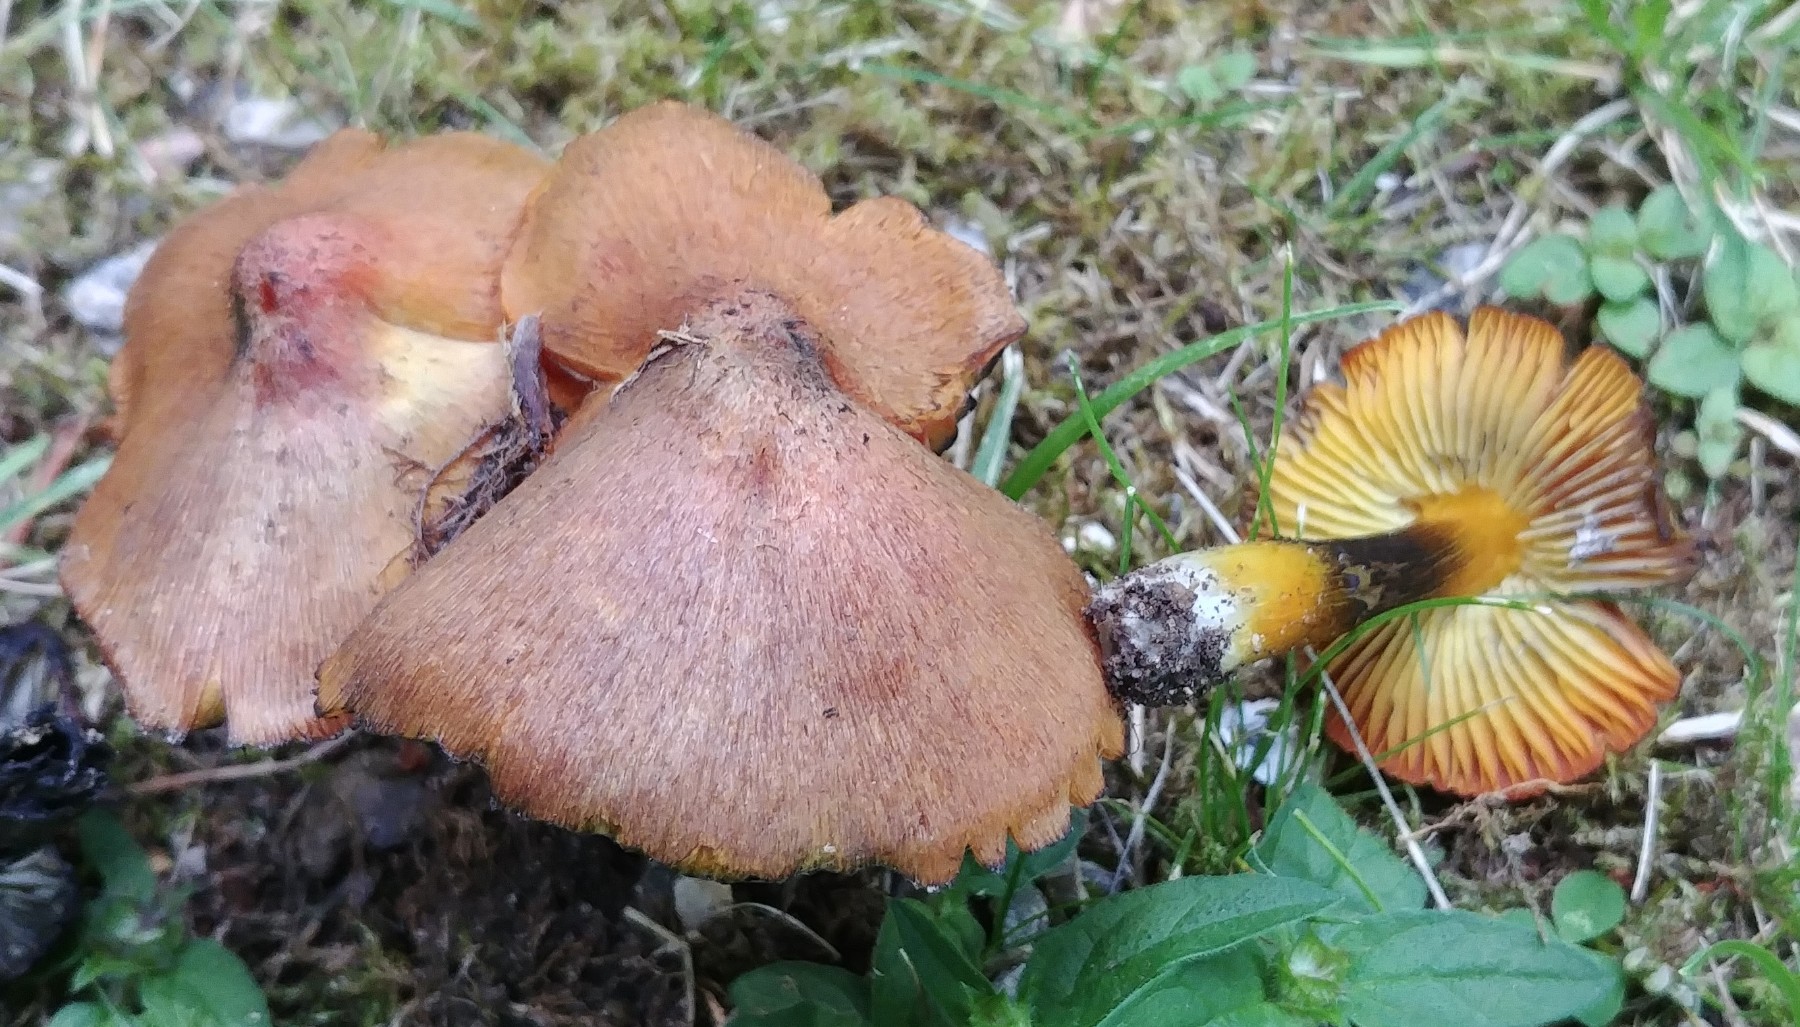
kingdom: Fungi
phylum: Basidiomycota
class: Agaricomycetes
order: Agaricales
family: Hygrophoraceae
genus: Hygrocybe
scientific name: Hygrocybe conica
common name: kegle-vokshat
